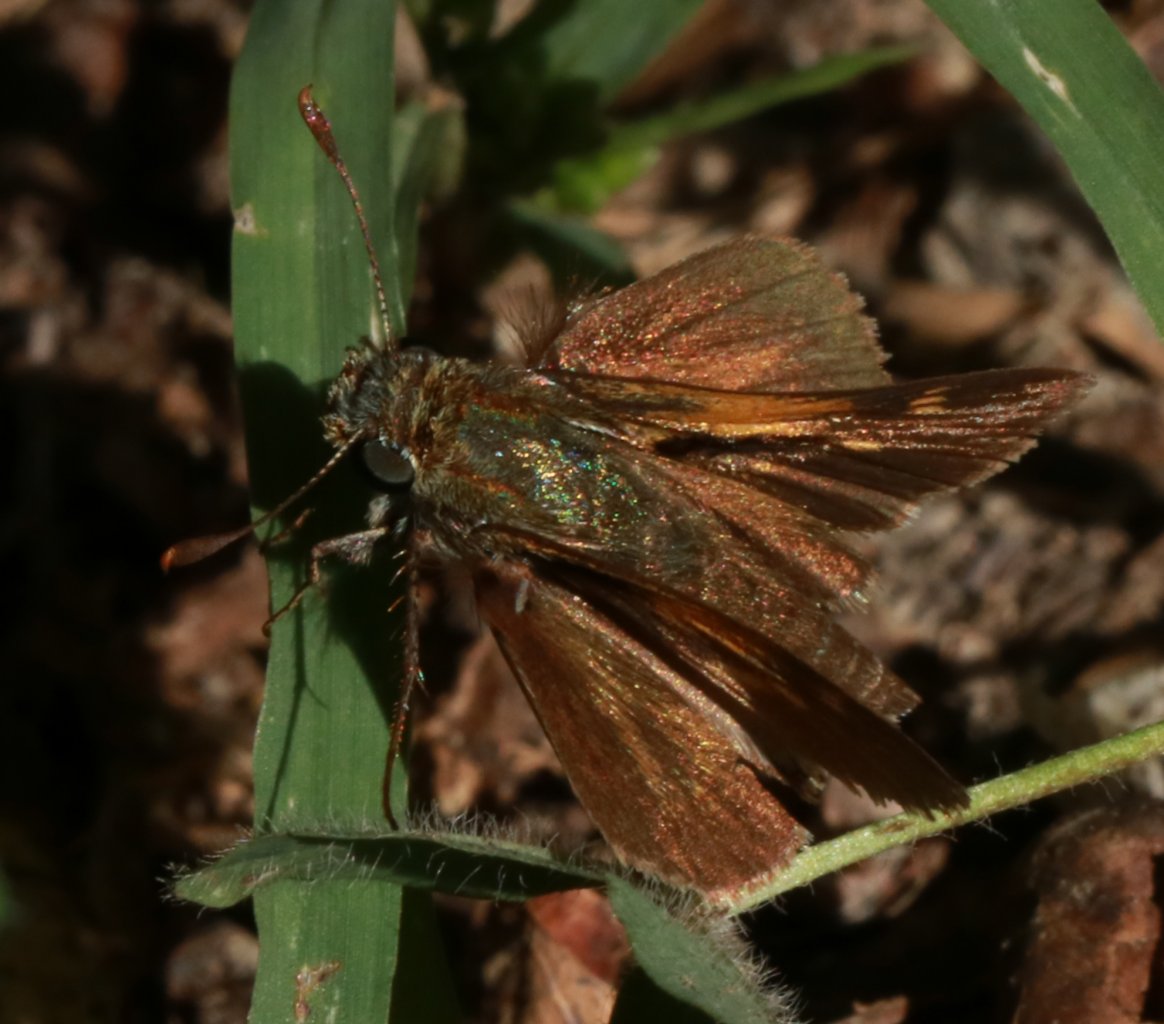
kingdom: Animalia
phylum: Arthropoda
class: Insecta
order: Lepidoptera
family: Hesperiidae
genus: Polites
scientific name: Polites themistocles
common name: Tawny-edged Skipper
